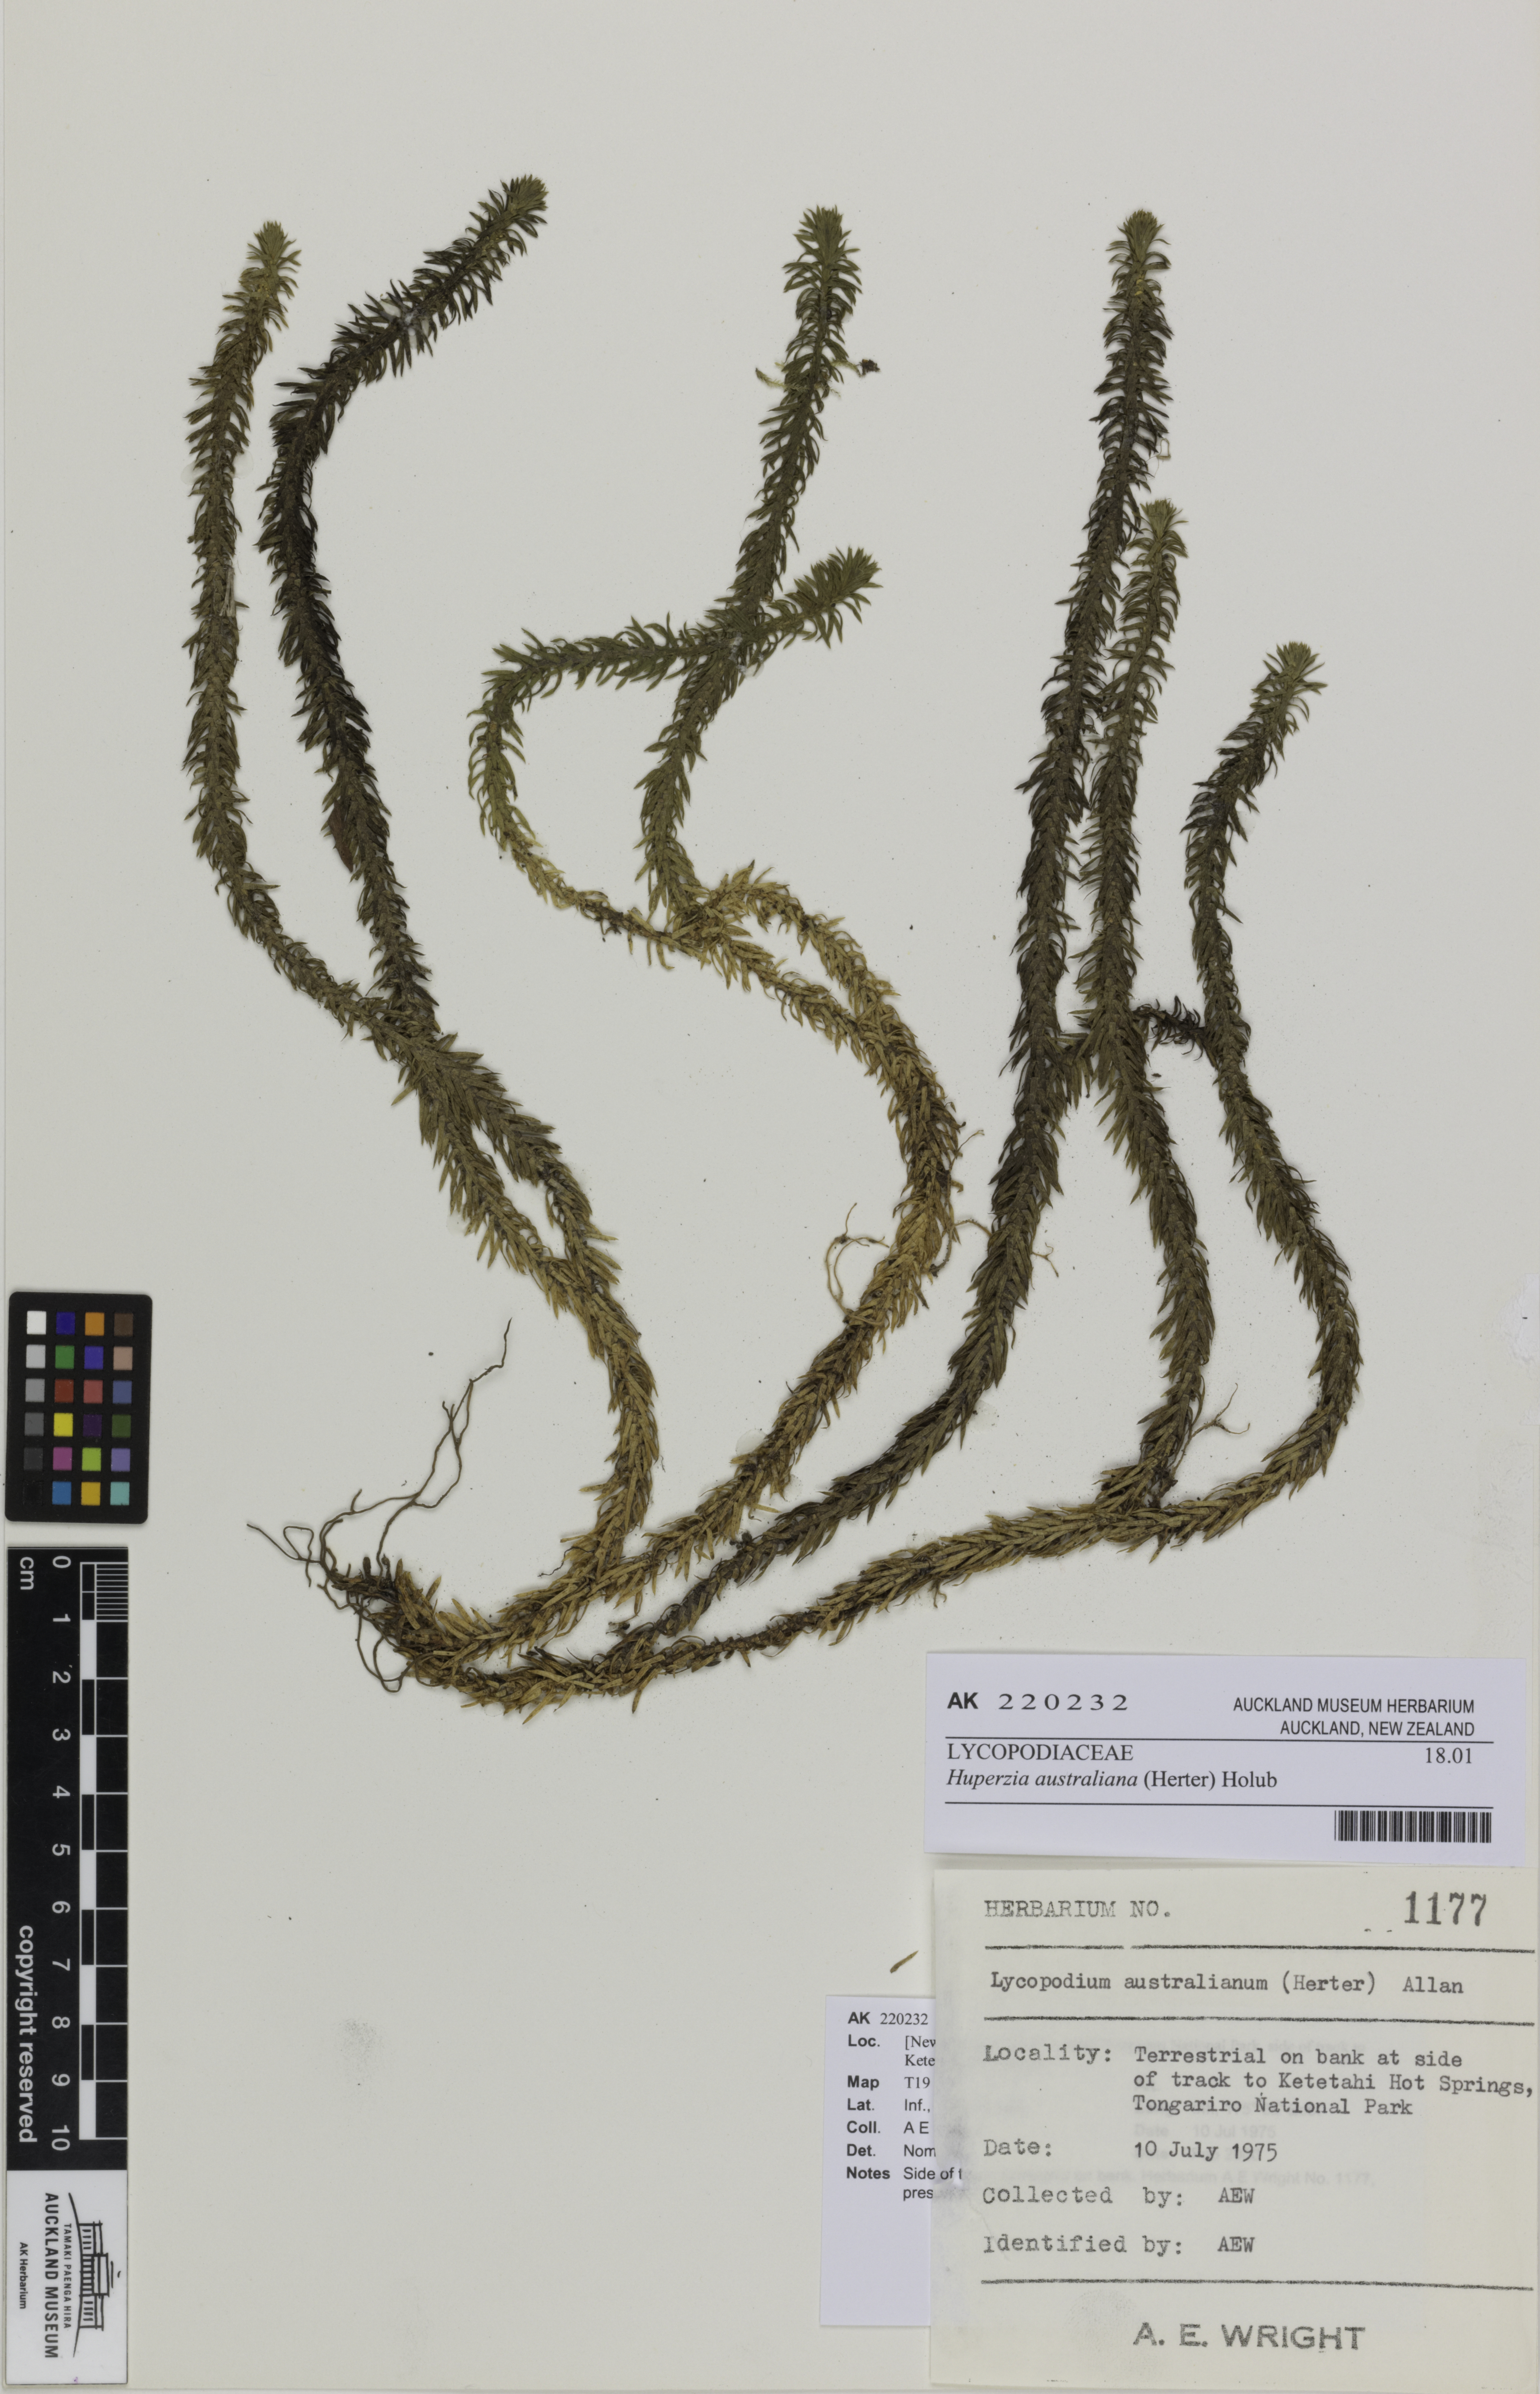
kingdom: Plantae
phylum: Tracheophyta
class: Lycopodiopsida
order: Lycopodiales
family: Lycopodiaceae
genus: Huperzia
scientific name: Huperzia australiana
